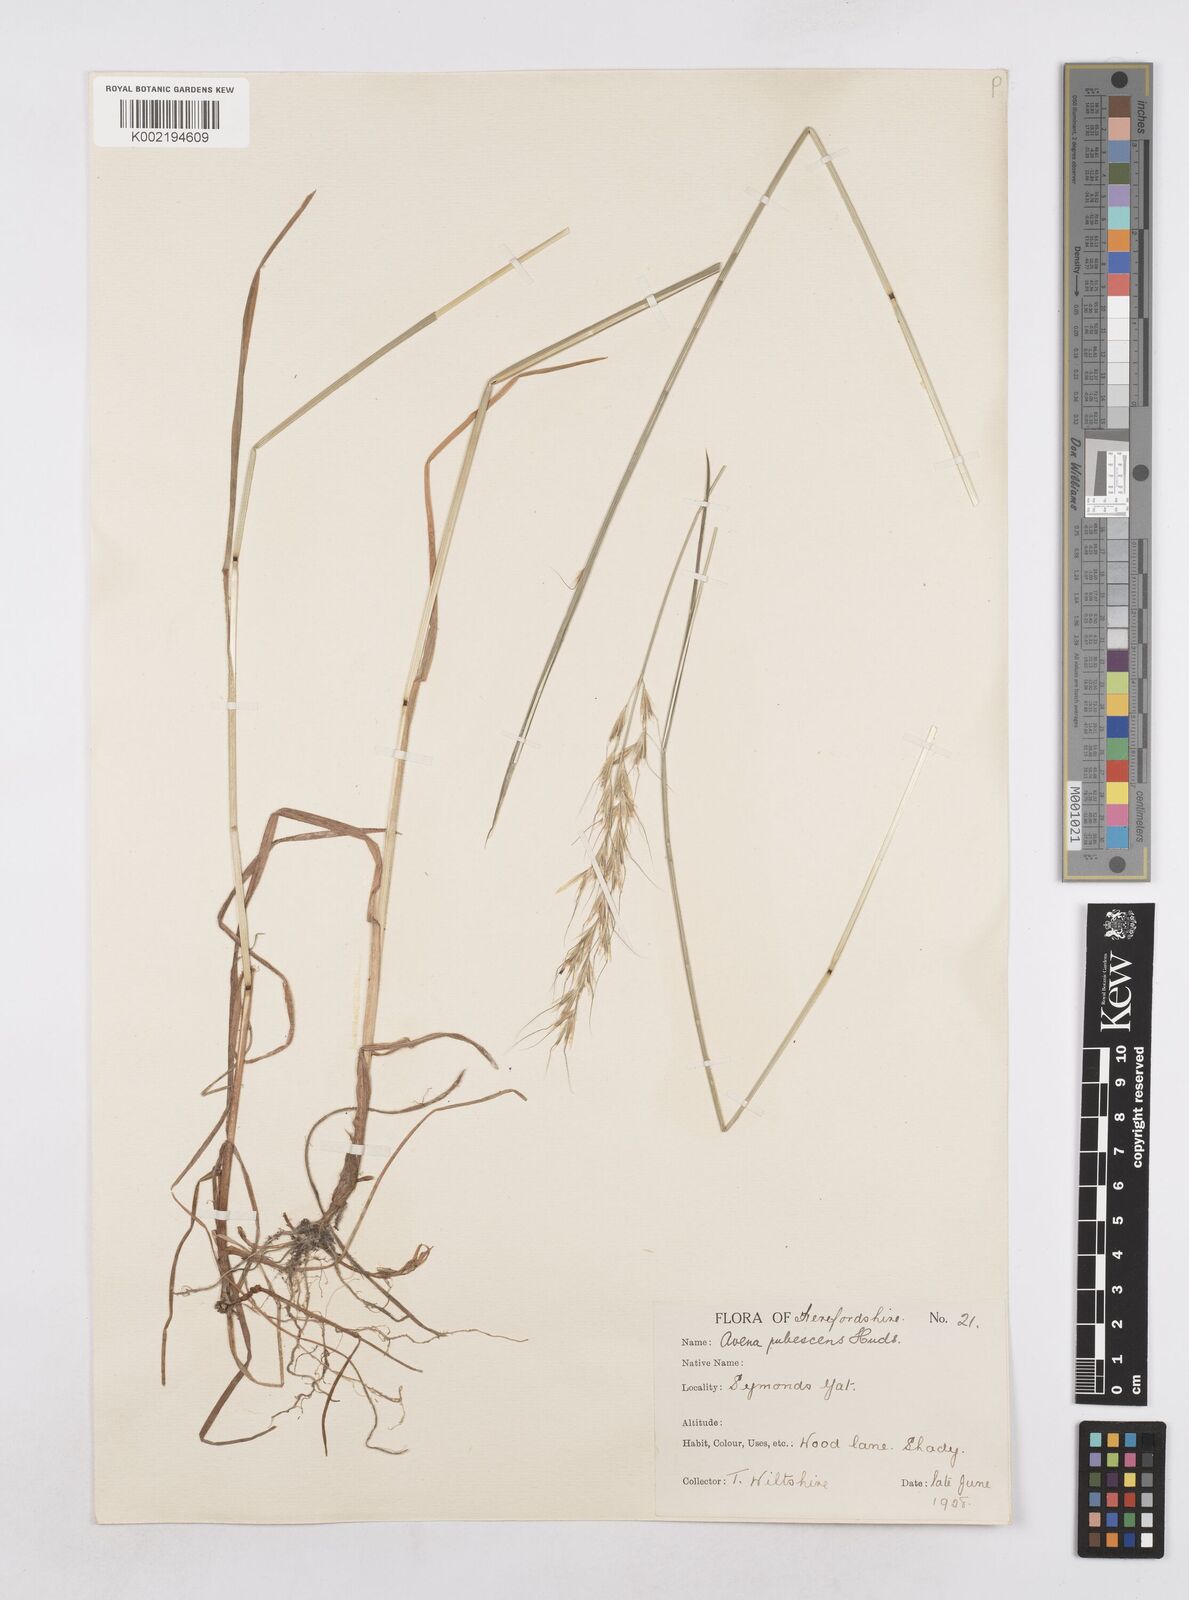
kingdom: Plantae
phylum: Tracheophyta
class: Liliopsida
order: Poales
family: Poaceae
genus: Avenula
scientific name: Avenula pubescens
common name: Downy alpine oatgrass
